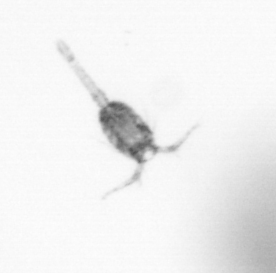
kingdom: Animalia
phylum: Arthropoda
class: Copepoda
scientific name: Copepoda
